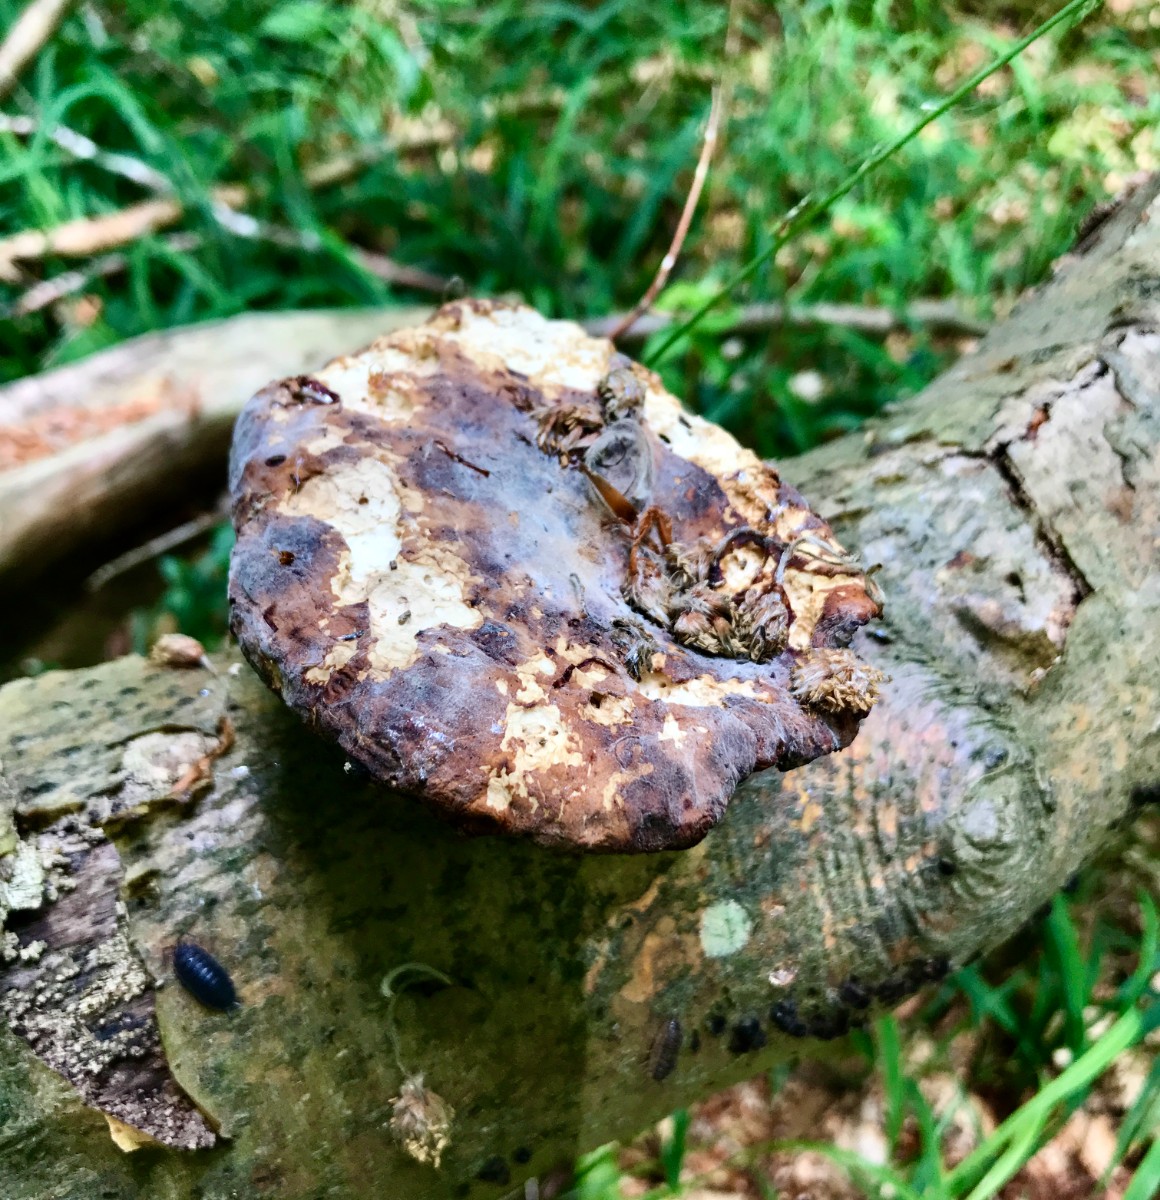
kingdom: Fungi
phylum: Basidiomycota
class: Agaricomycetes
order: Polyporales
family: Polyporaceae
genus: Polyporus
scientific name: Polyporus tuberaster
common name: knoldet stilkporesvamp
